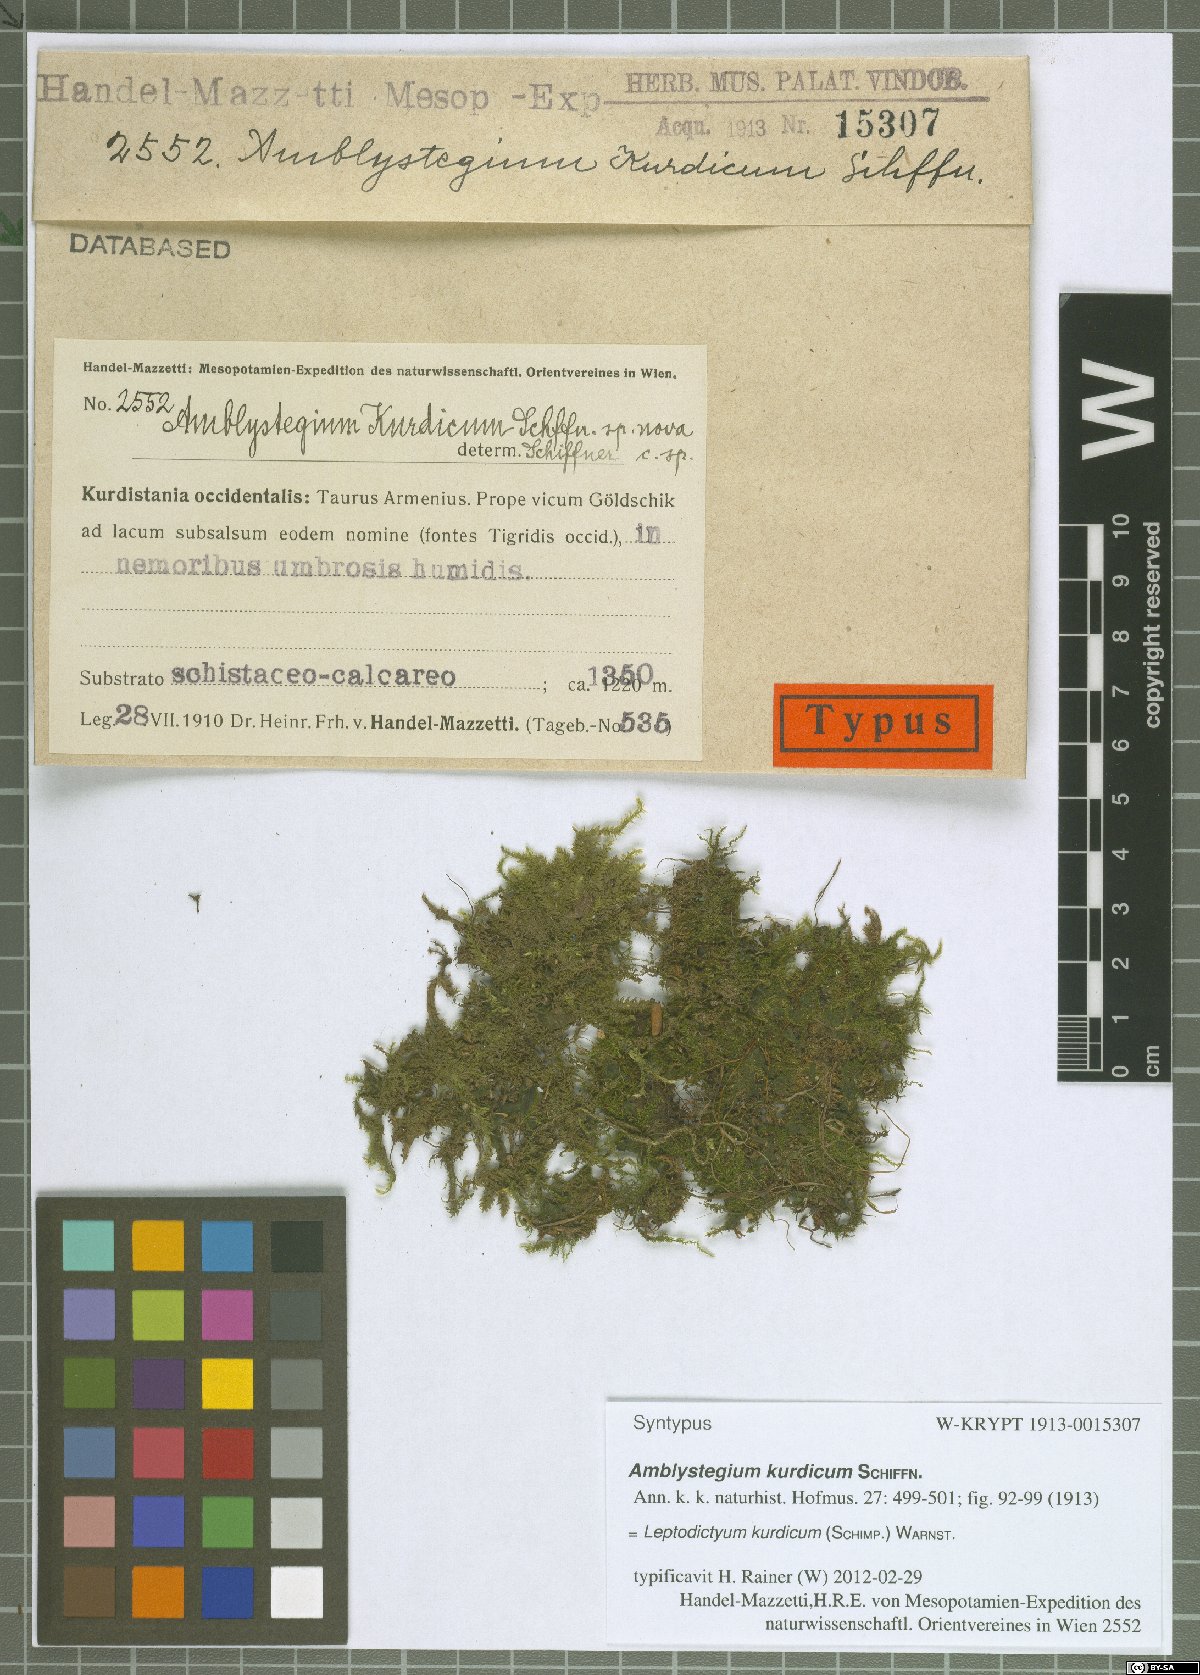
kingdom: Plantae
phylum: Bryophyta
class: Bryopsida
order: Hypnales
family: Amblystegiaceae
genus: Leptodictyum
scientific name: Leptodictyum kurdicum
